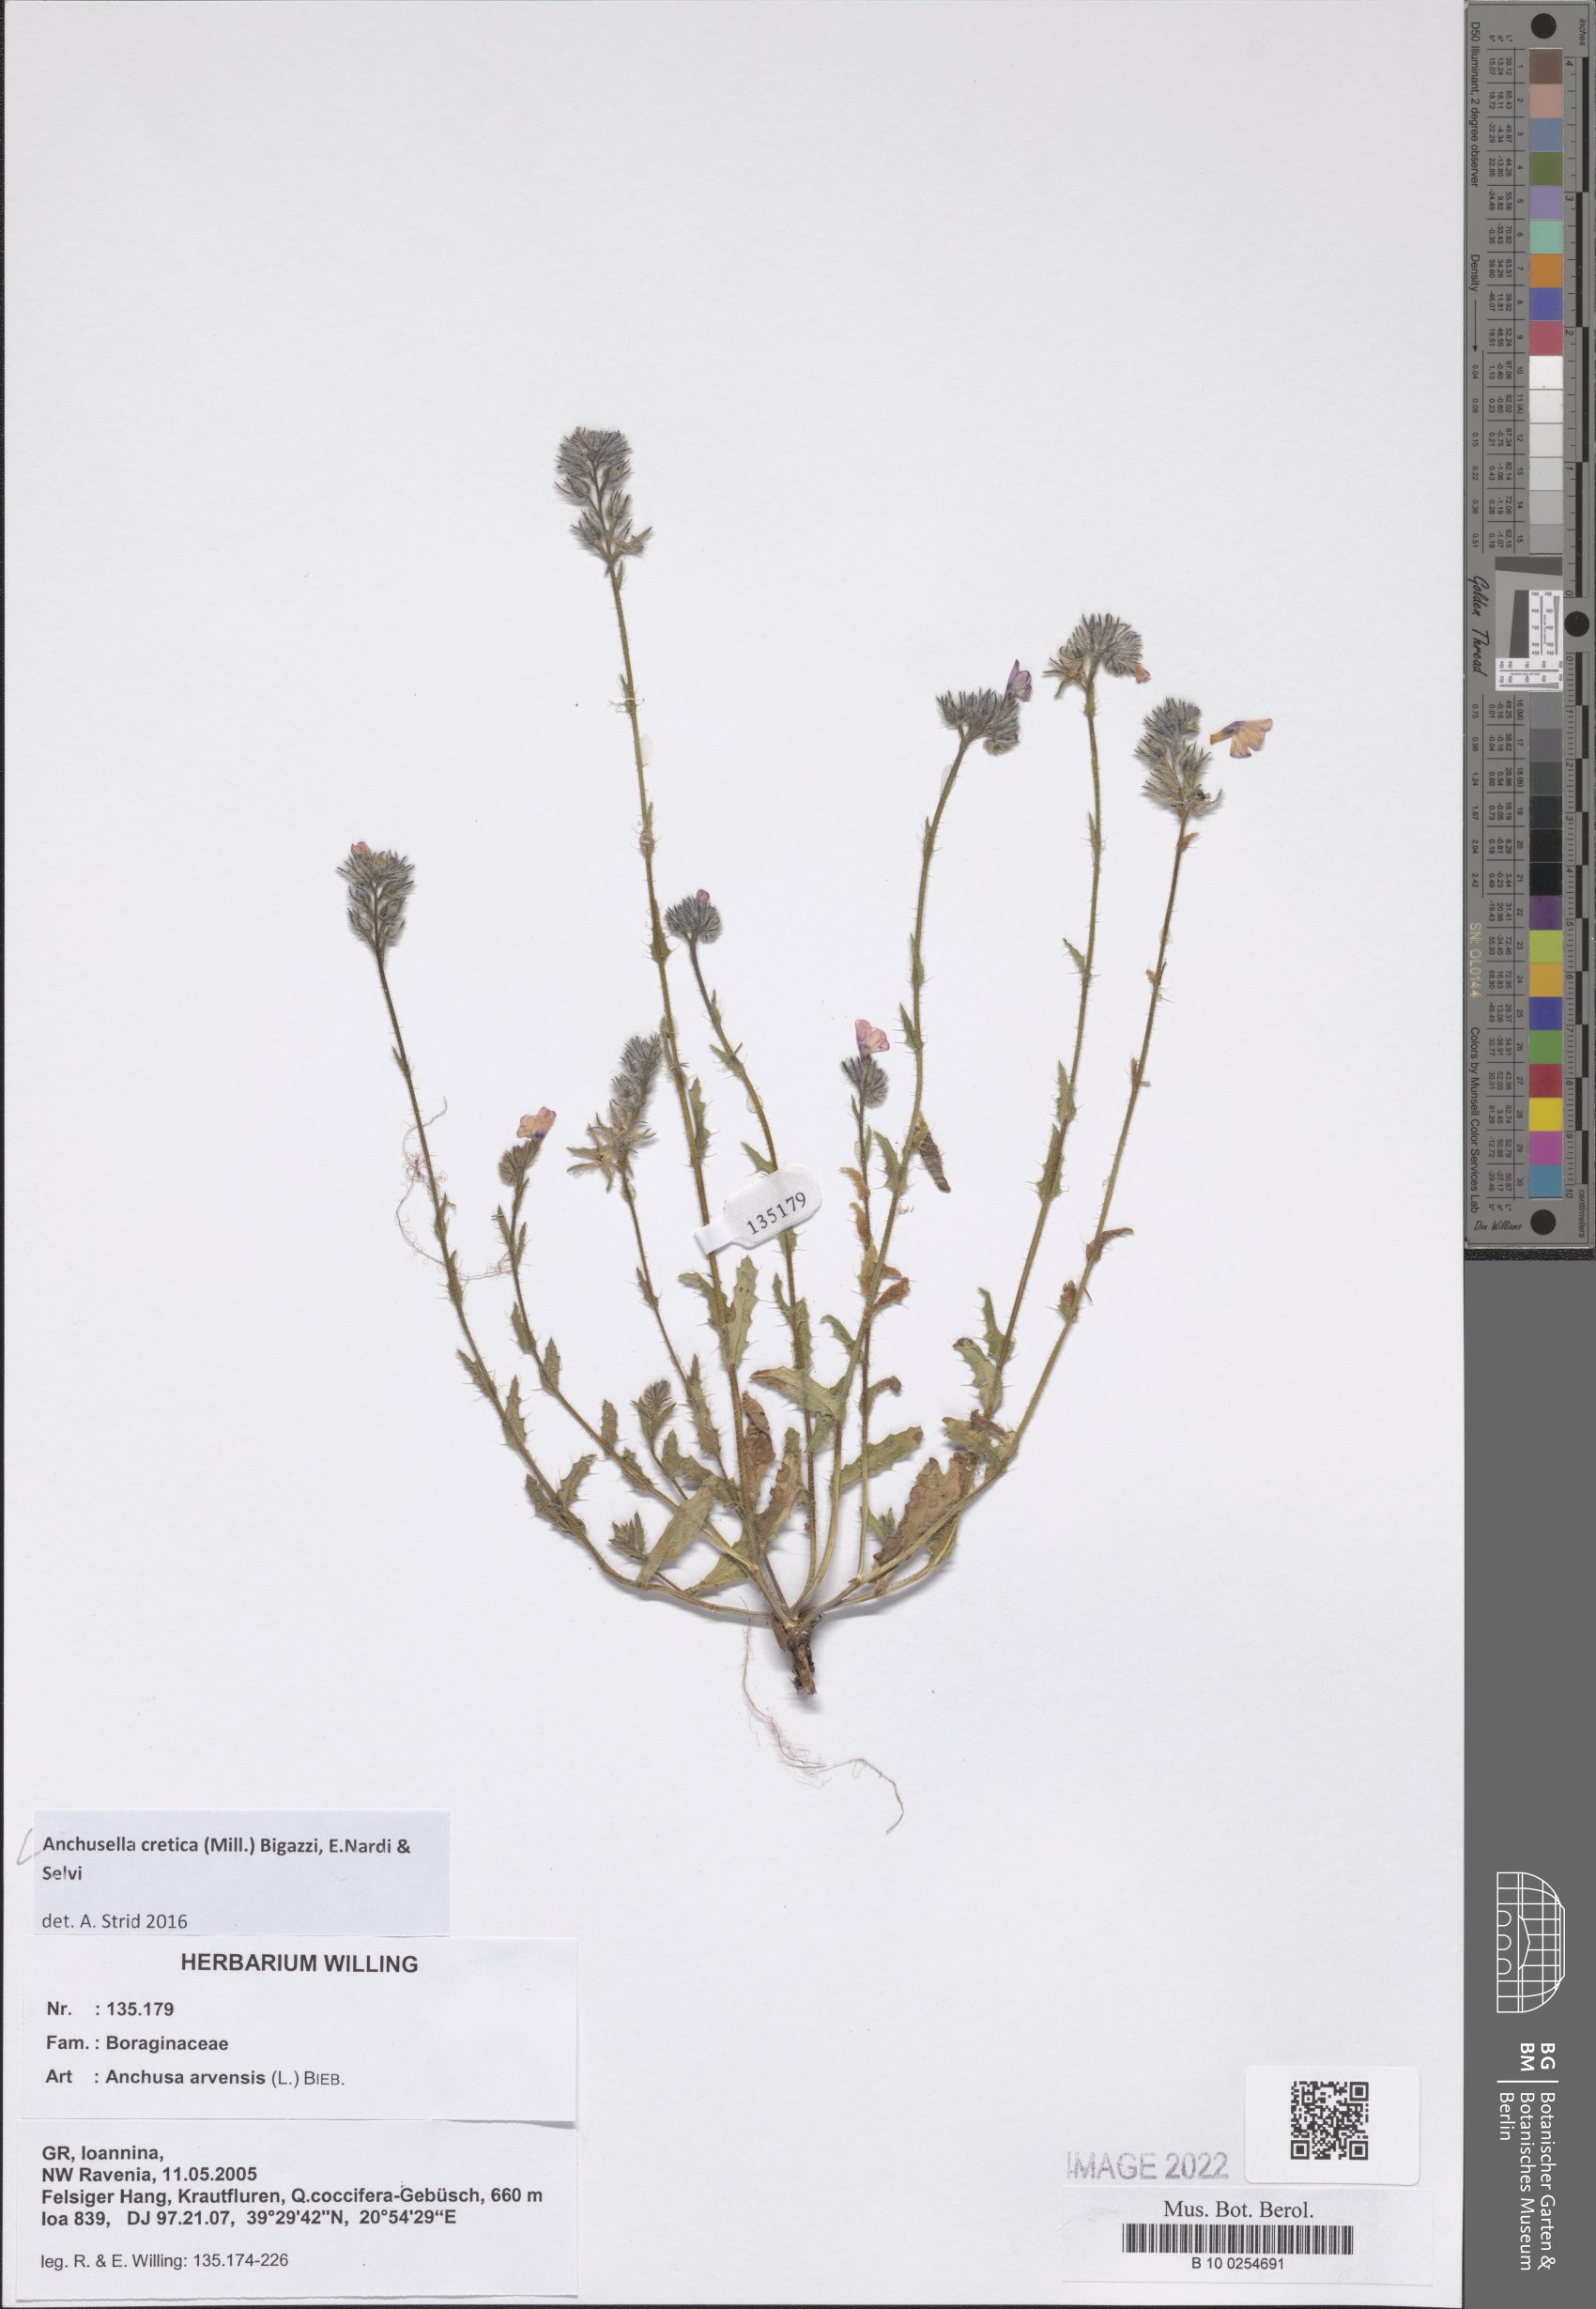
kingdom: Plantae
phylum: Tracheophyta
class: Magnoliopsida
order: Boraginales
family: Boraginaceae
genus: Anchusella
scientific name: Anchusella cretica
